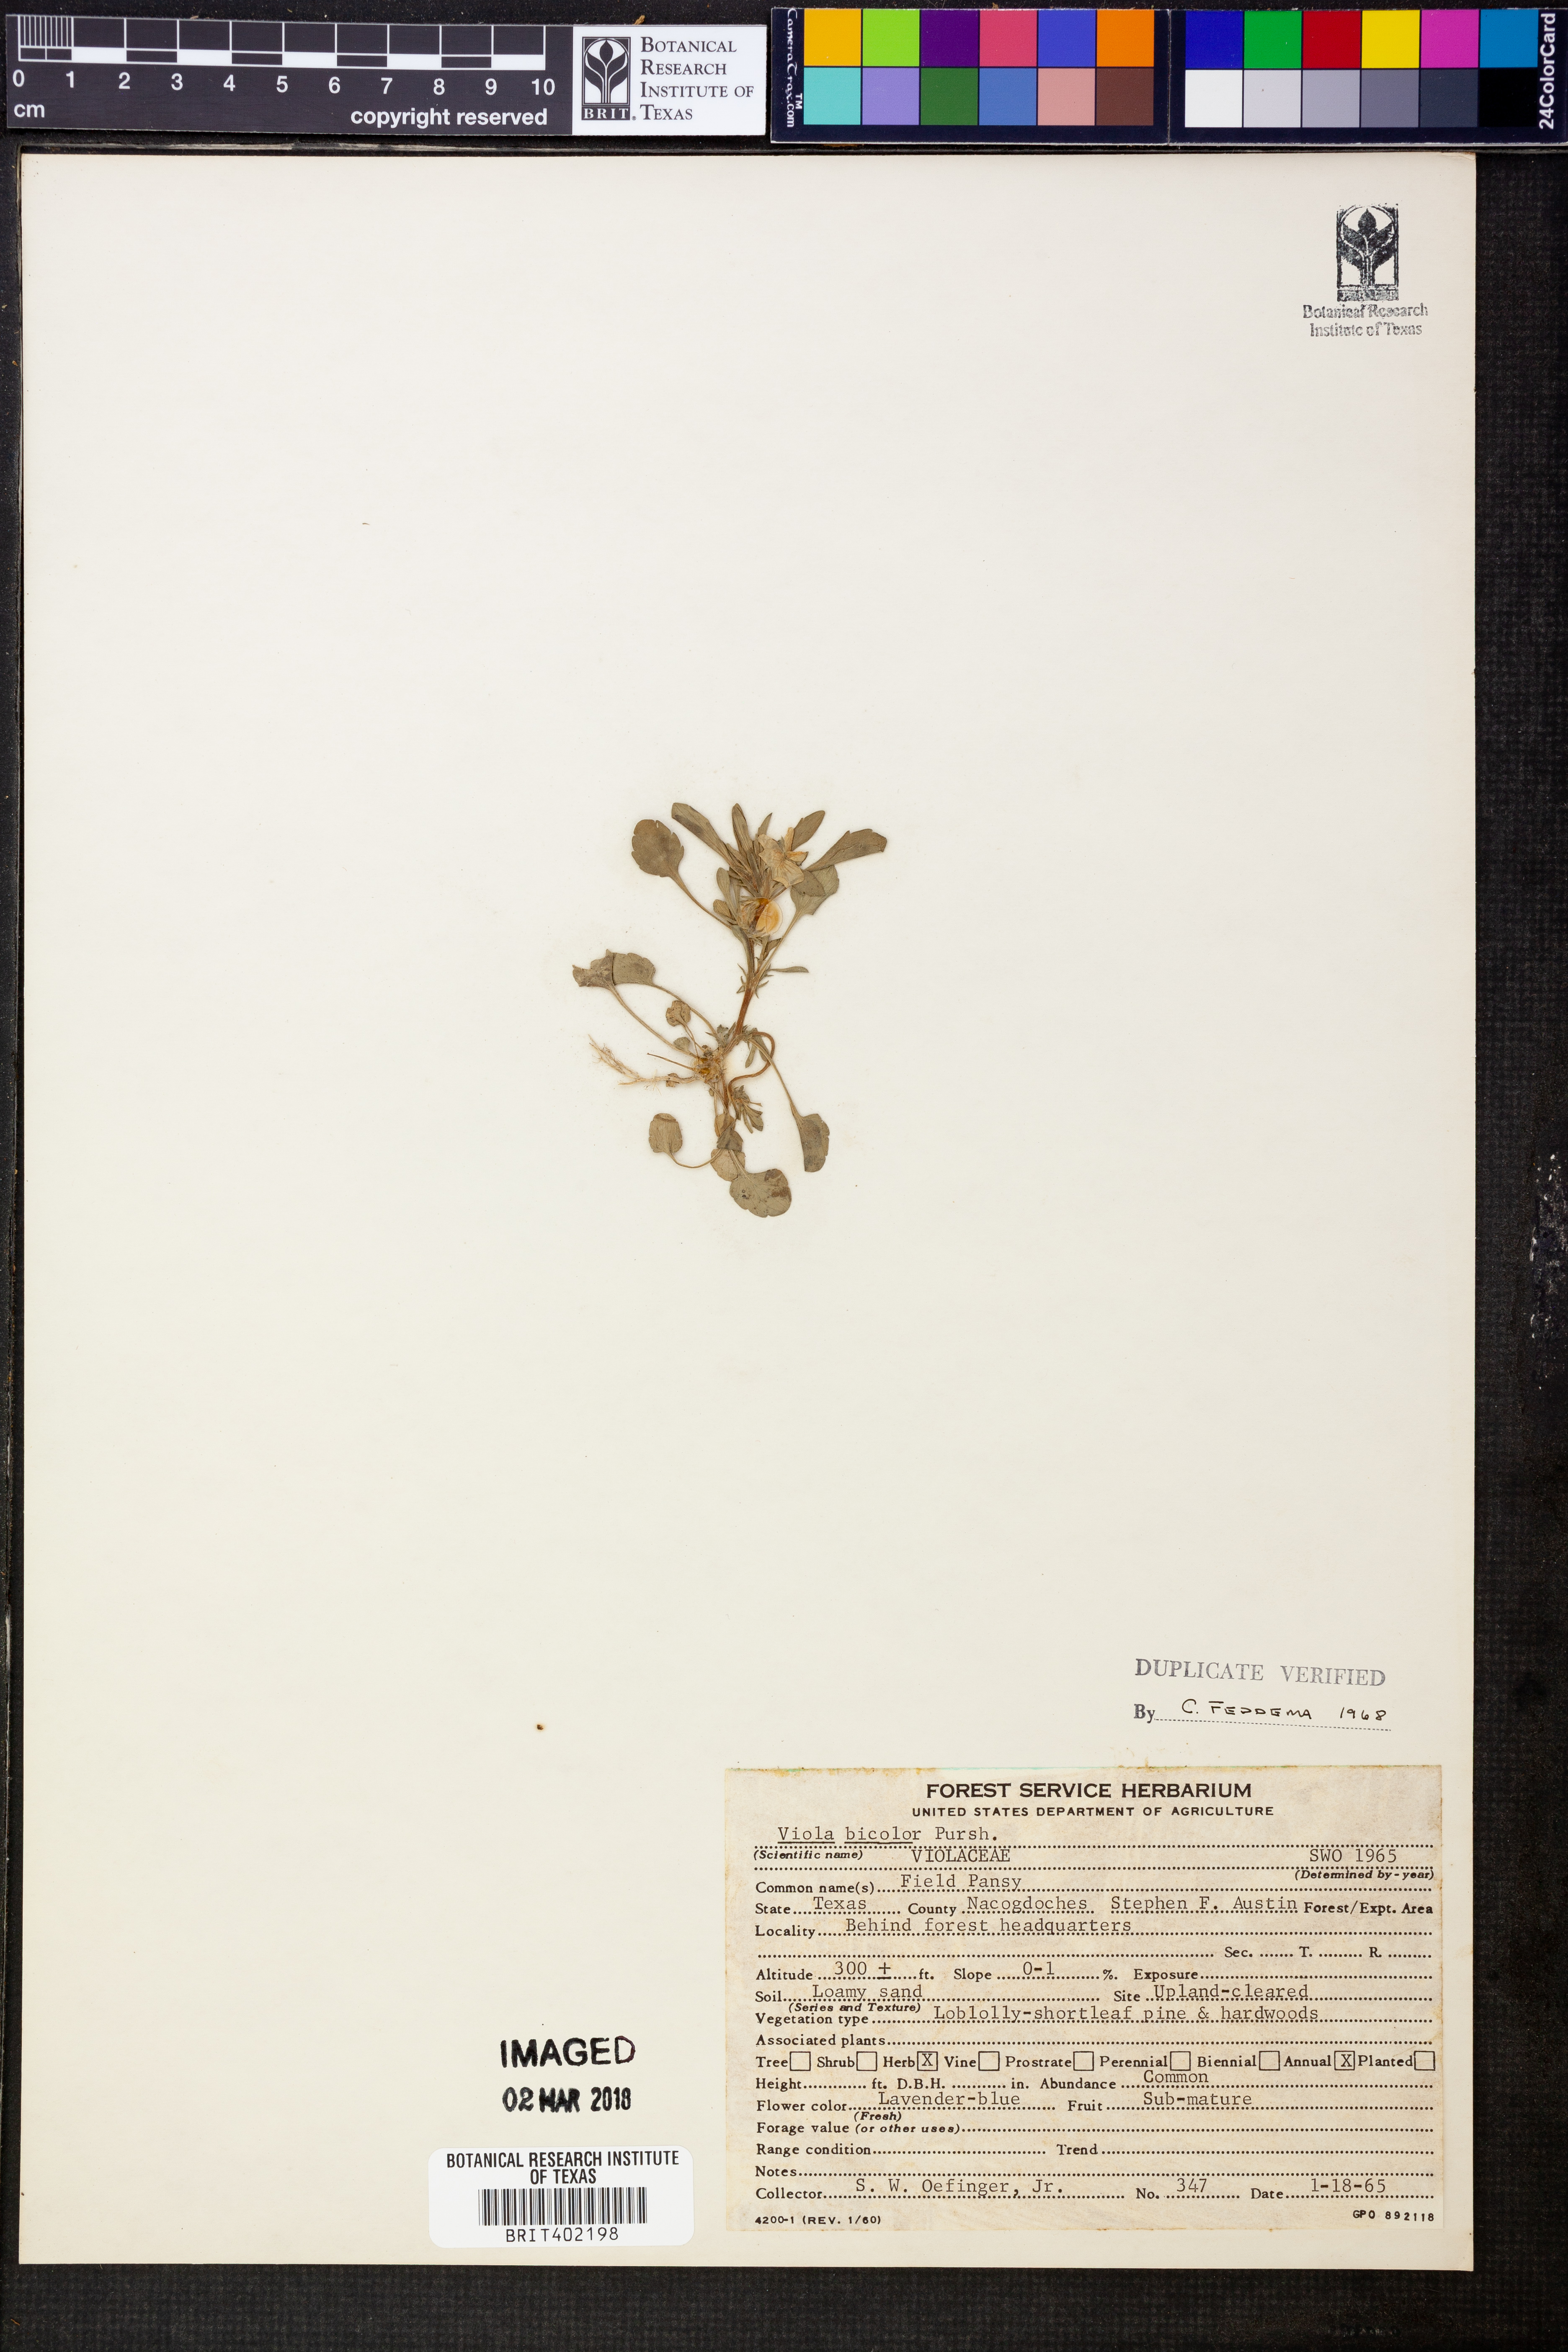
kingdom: Plantae
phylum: Tracheophyta
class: Magnoliopsida
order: Malpighiales
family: Violaceae
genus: Viola
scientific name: Viola rafinesquei
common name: American field pansy
